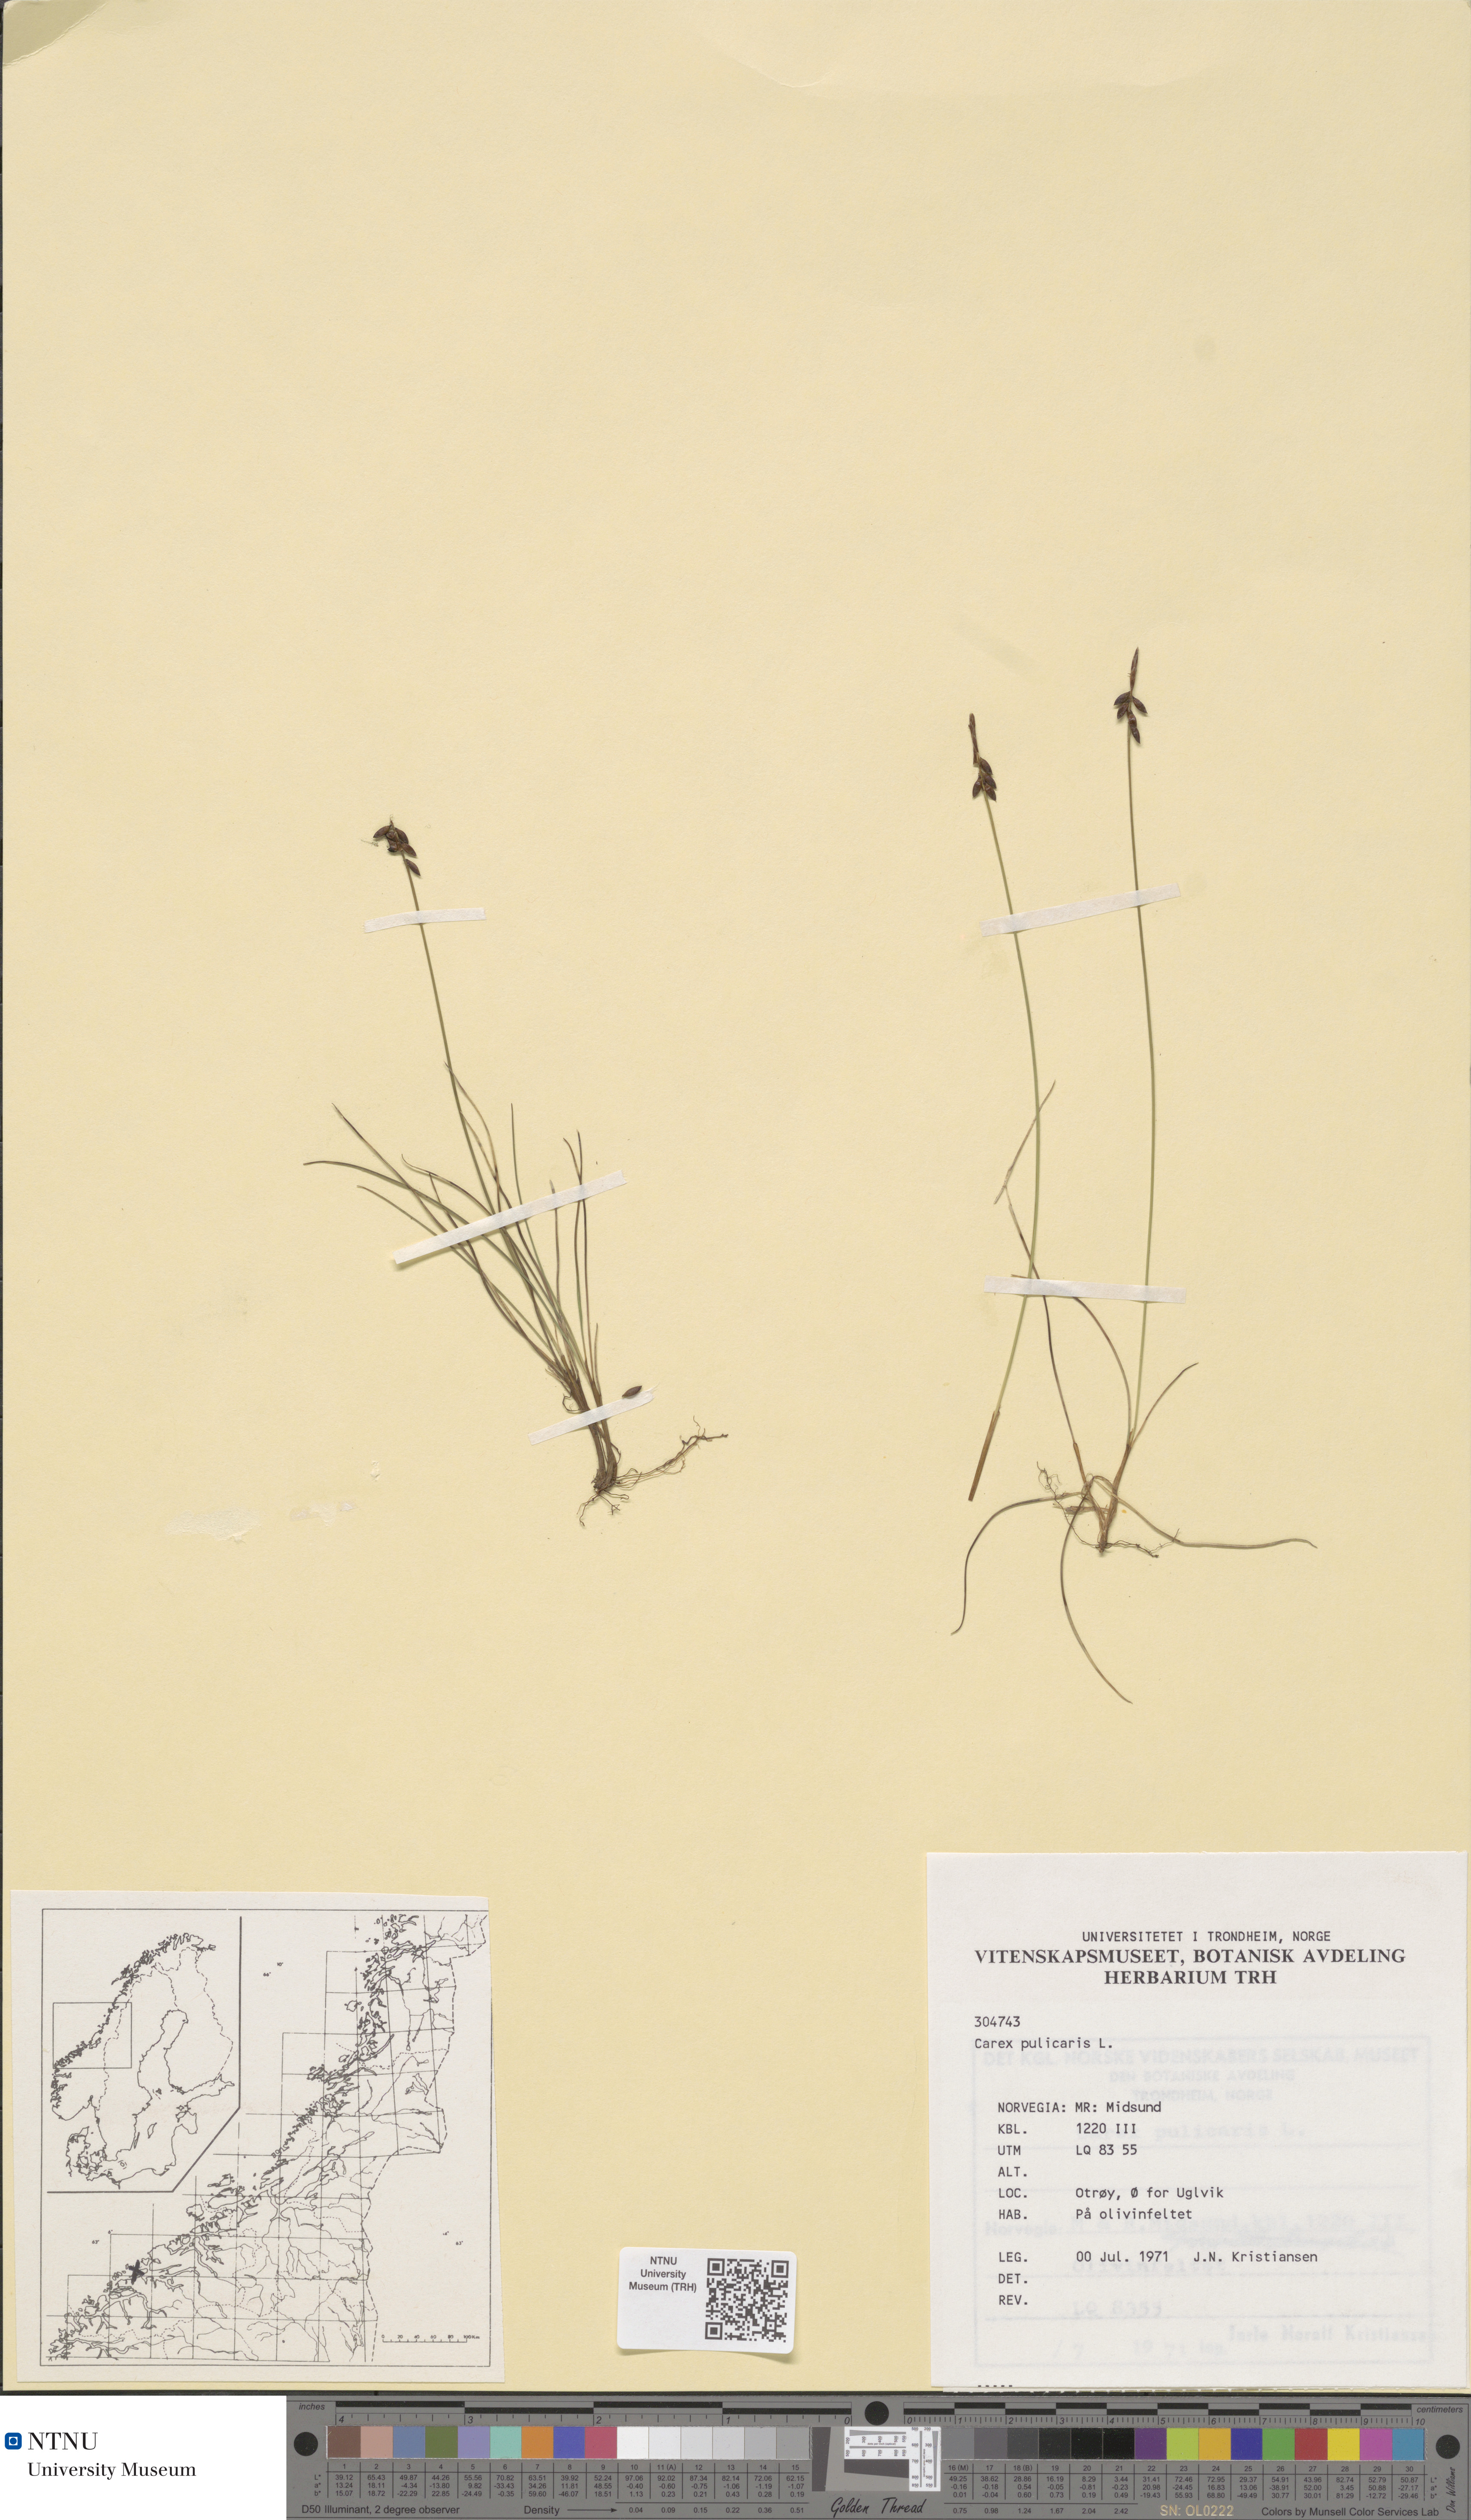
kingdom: Plantae
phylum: Tracheophyta
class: Liliopsida
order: Poales
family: Cyperaceae
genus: Carex
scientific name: Carex pulicaris
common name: Flea sedge
